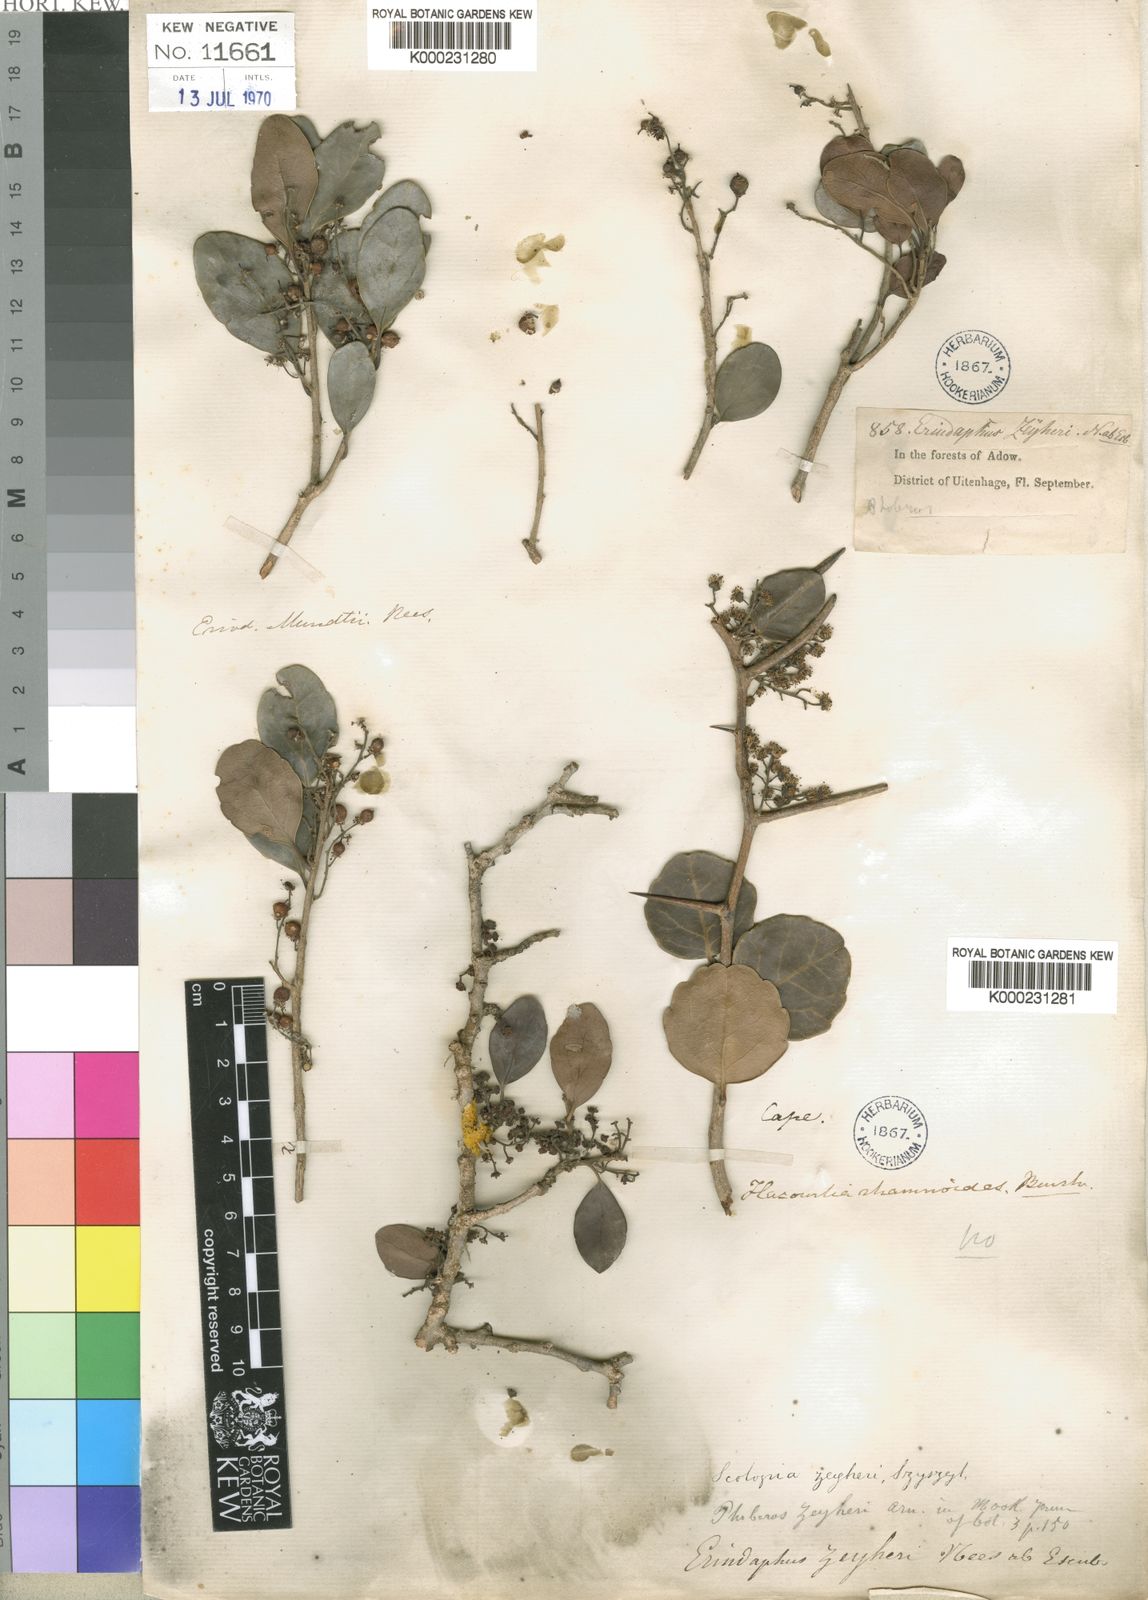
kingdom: Plantae
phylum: Tracheophyta
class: Magnoliopsida
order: Malpighiales
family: Salicaceae
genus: Scolopia
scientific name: Scolopia
